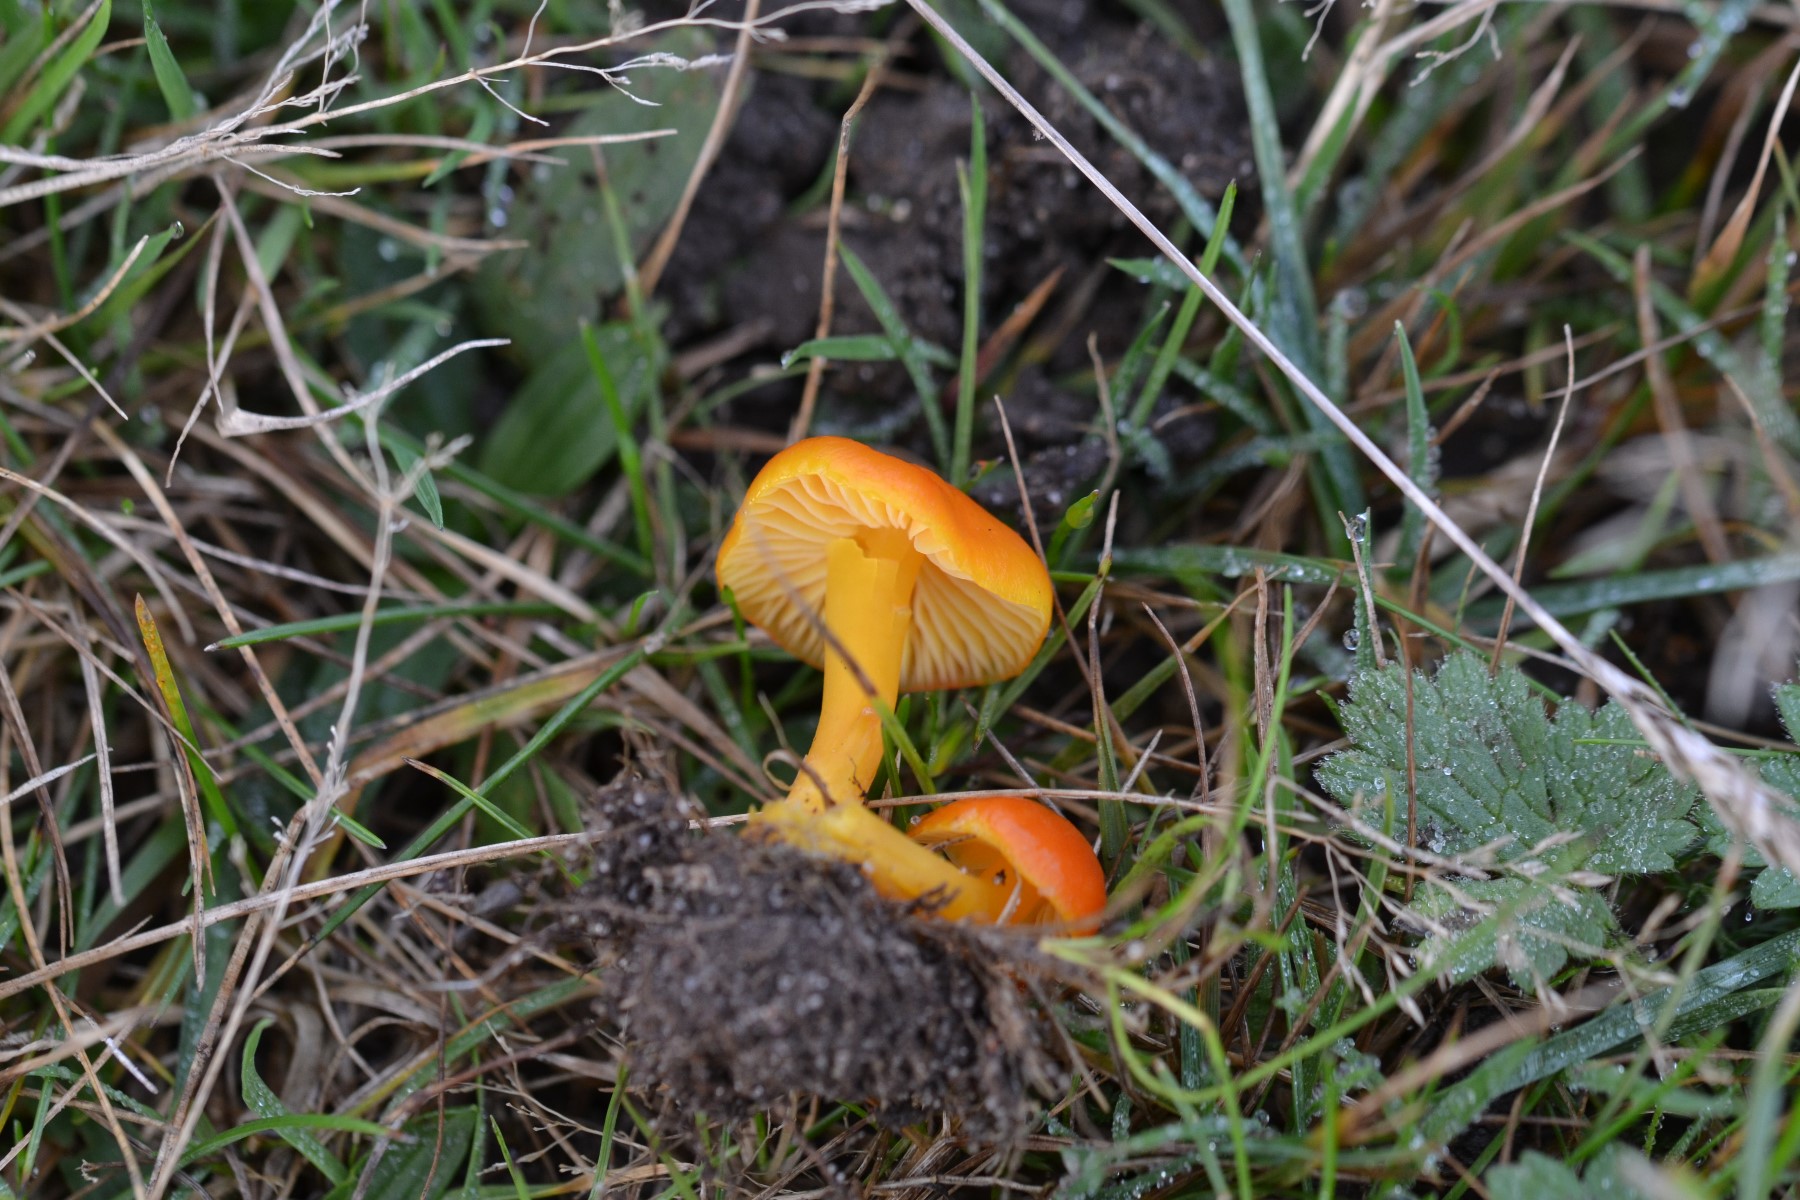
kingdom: Fungi
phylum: Basidiomycota
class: Agaricomycetes
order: Agaricales
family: Hygrophoraceae
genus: Hygrocybe
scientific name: Hygrocybe
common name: vokshat
